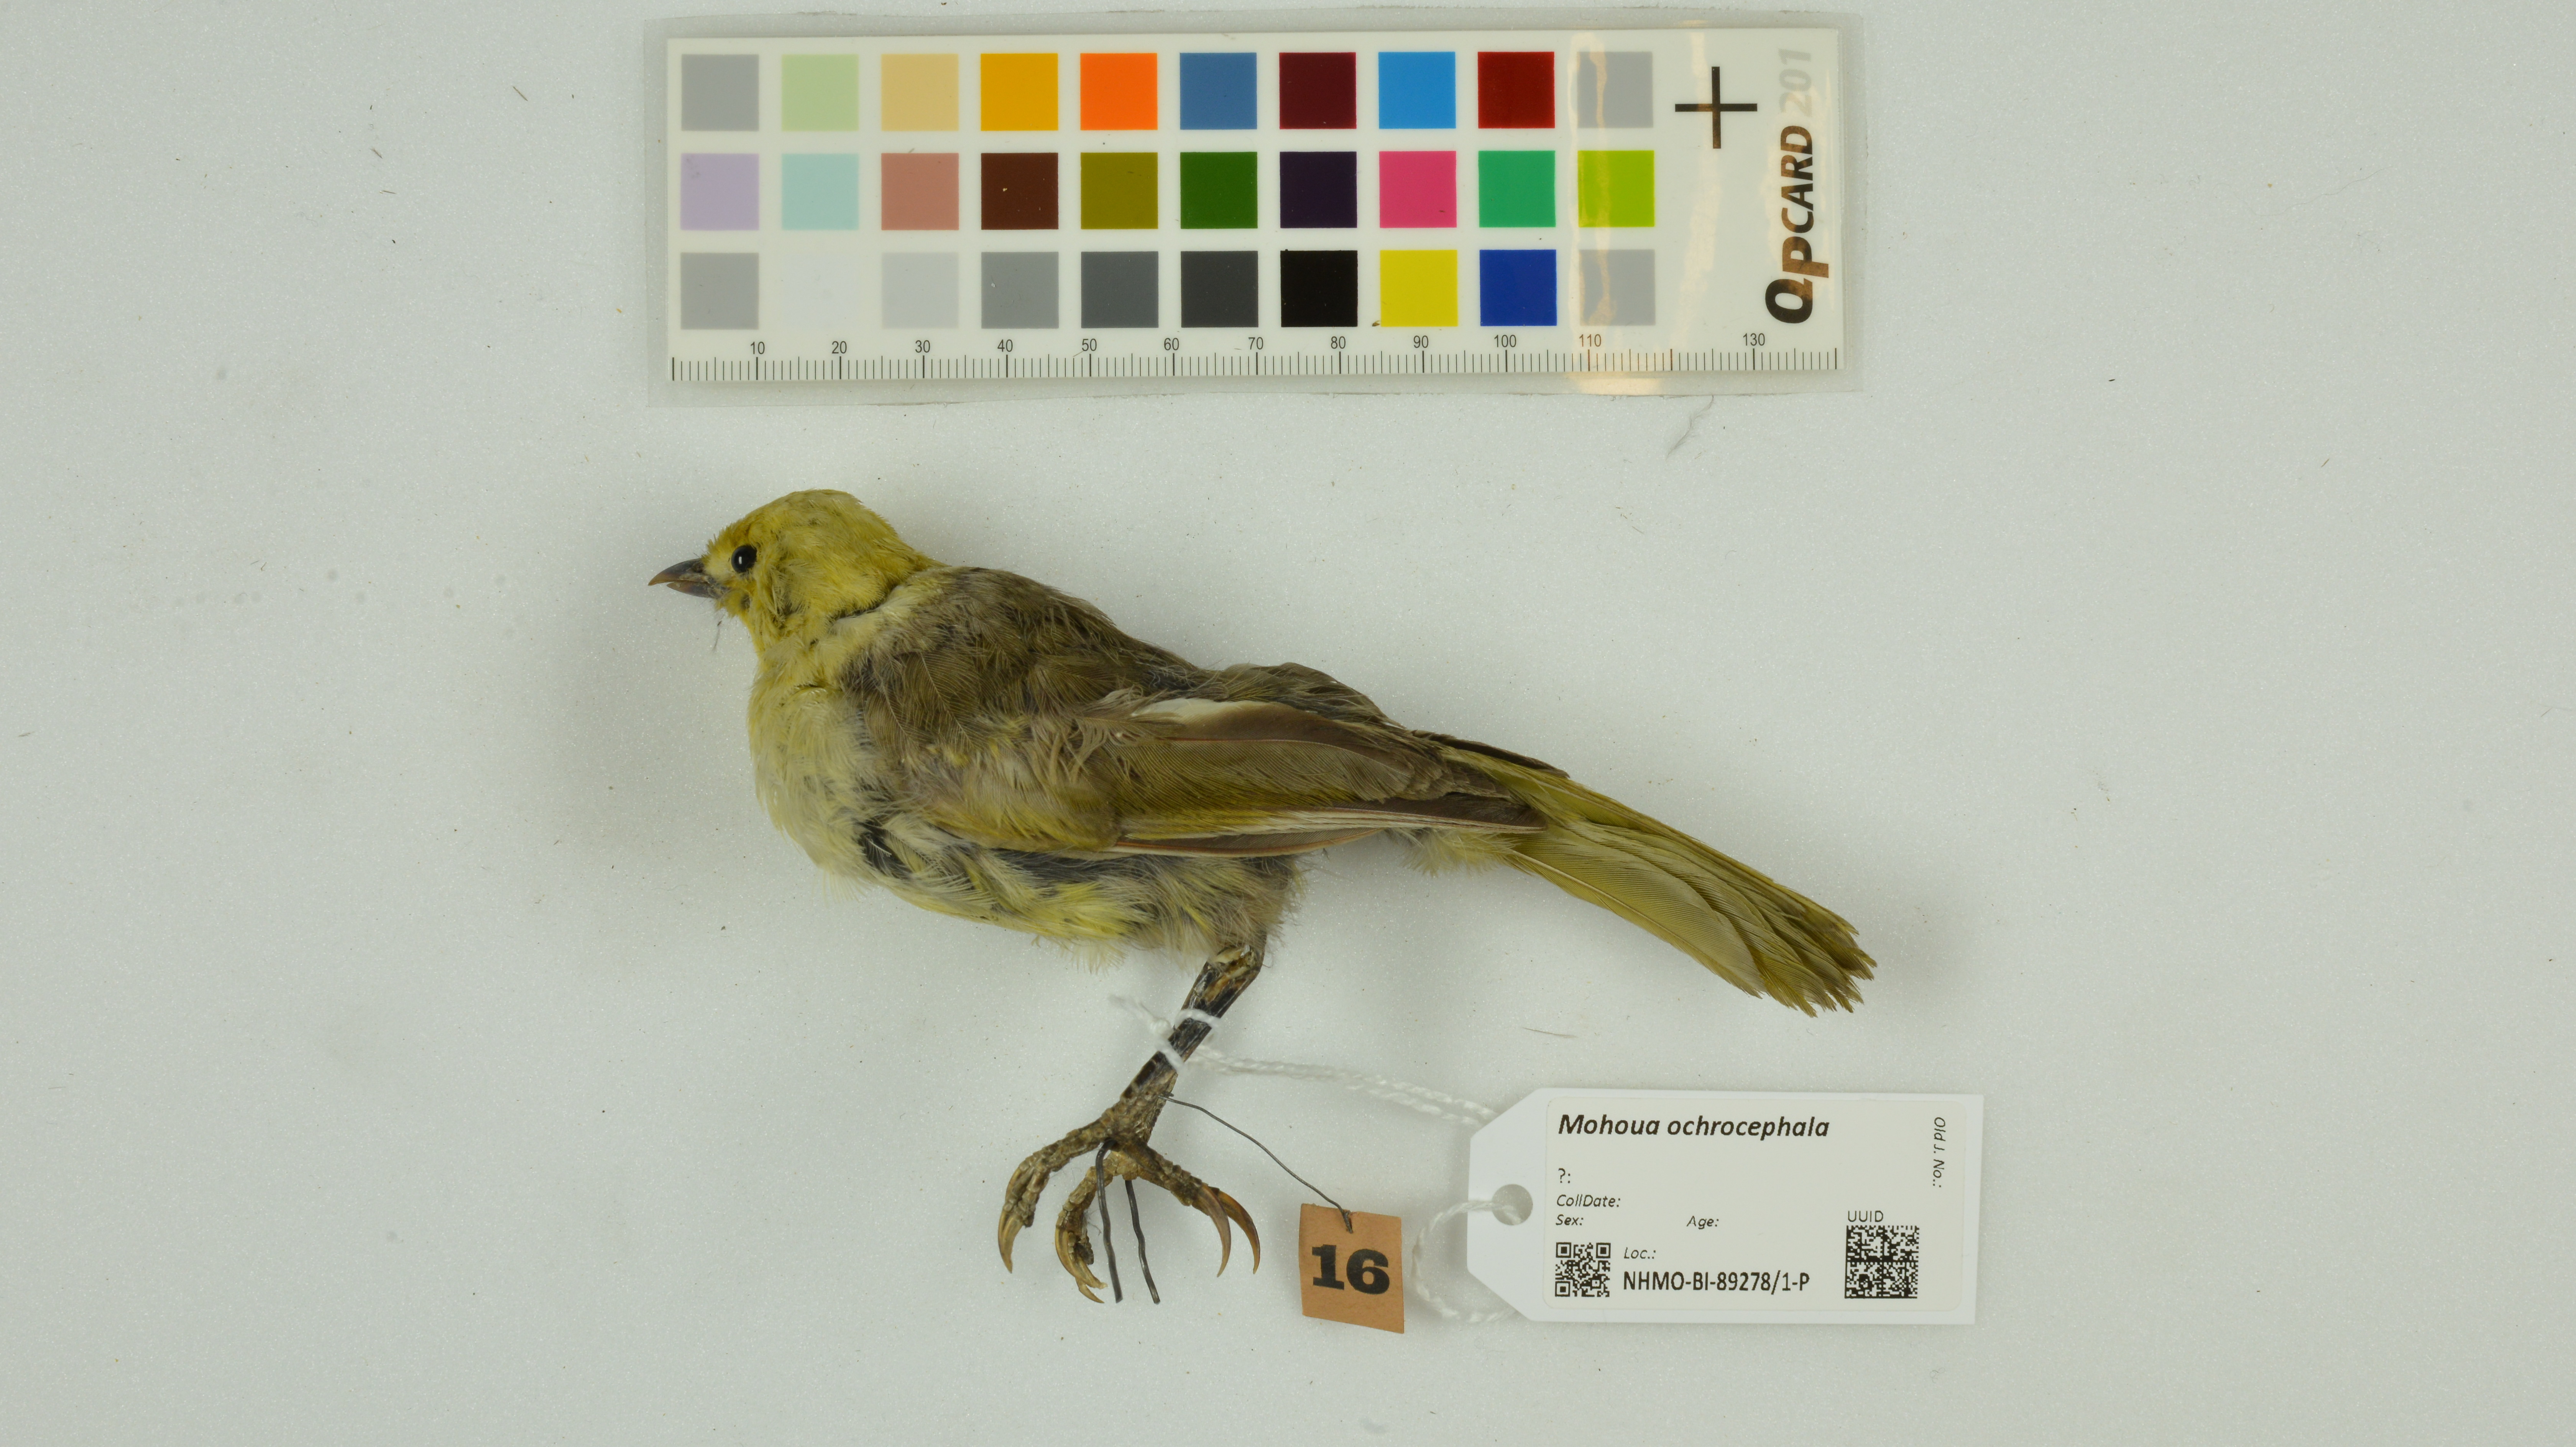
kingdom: Animalia
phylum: Chordata
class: Aves
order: Passeriformes
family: Acanthizidae
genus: Mohoua
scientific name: Mohoua ochrocephala
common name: Yellowhead
